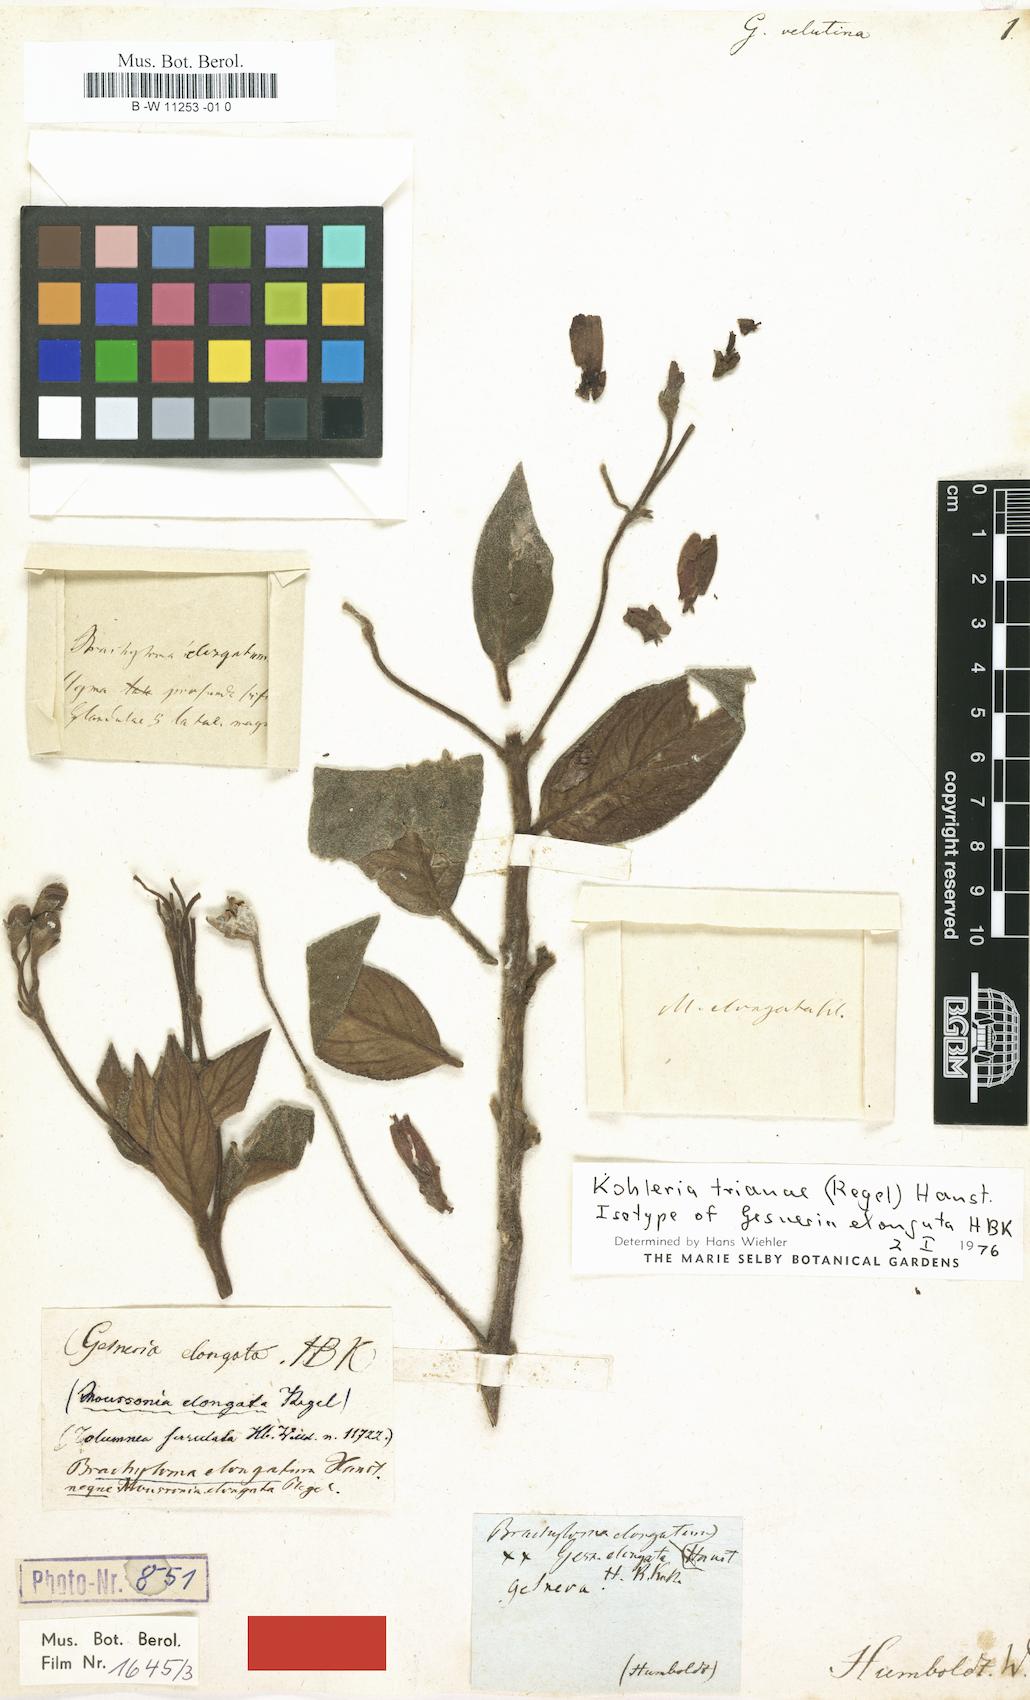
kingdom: Plantae
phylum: Tracheophyta
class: Magnoliopsida
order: Lamiales
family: Gesneriaceae
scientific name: Gesneriaceae
